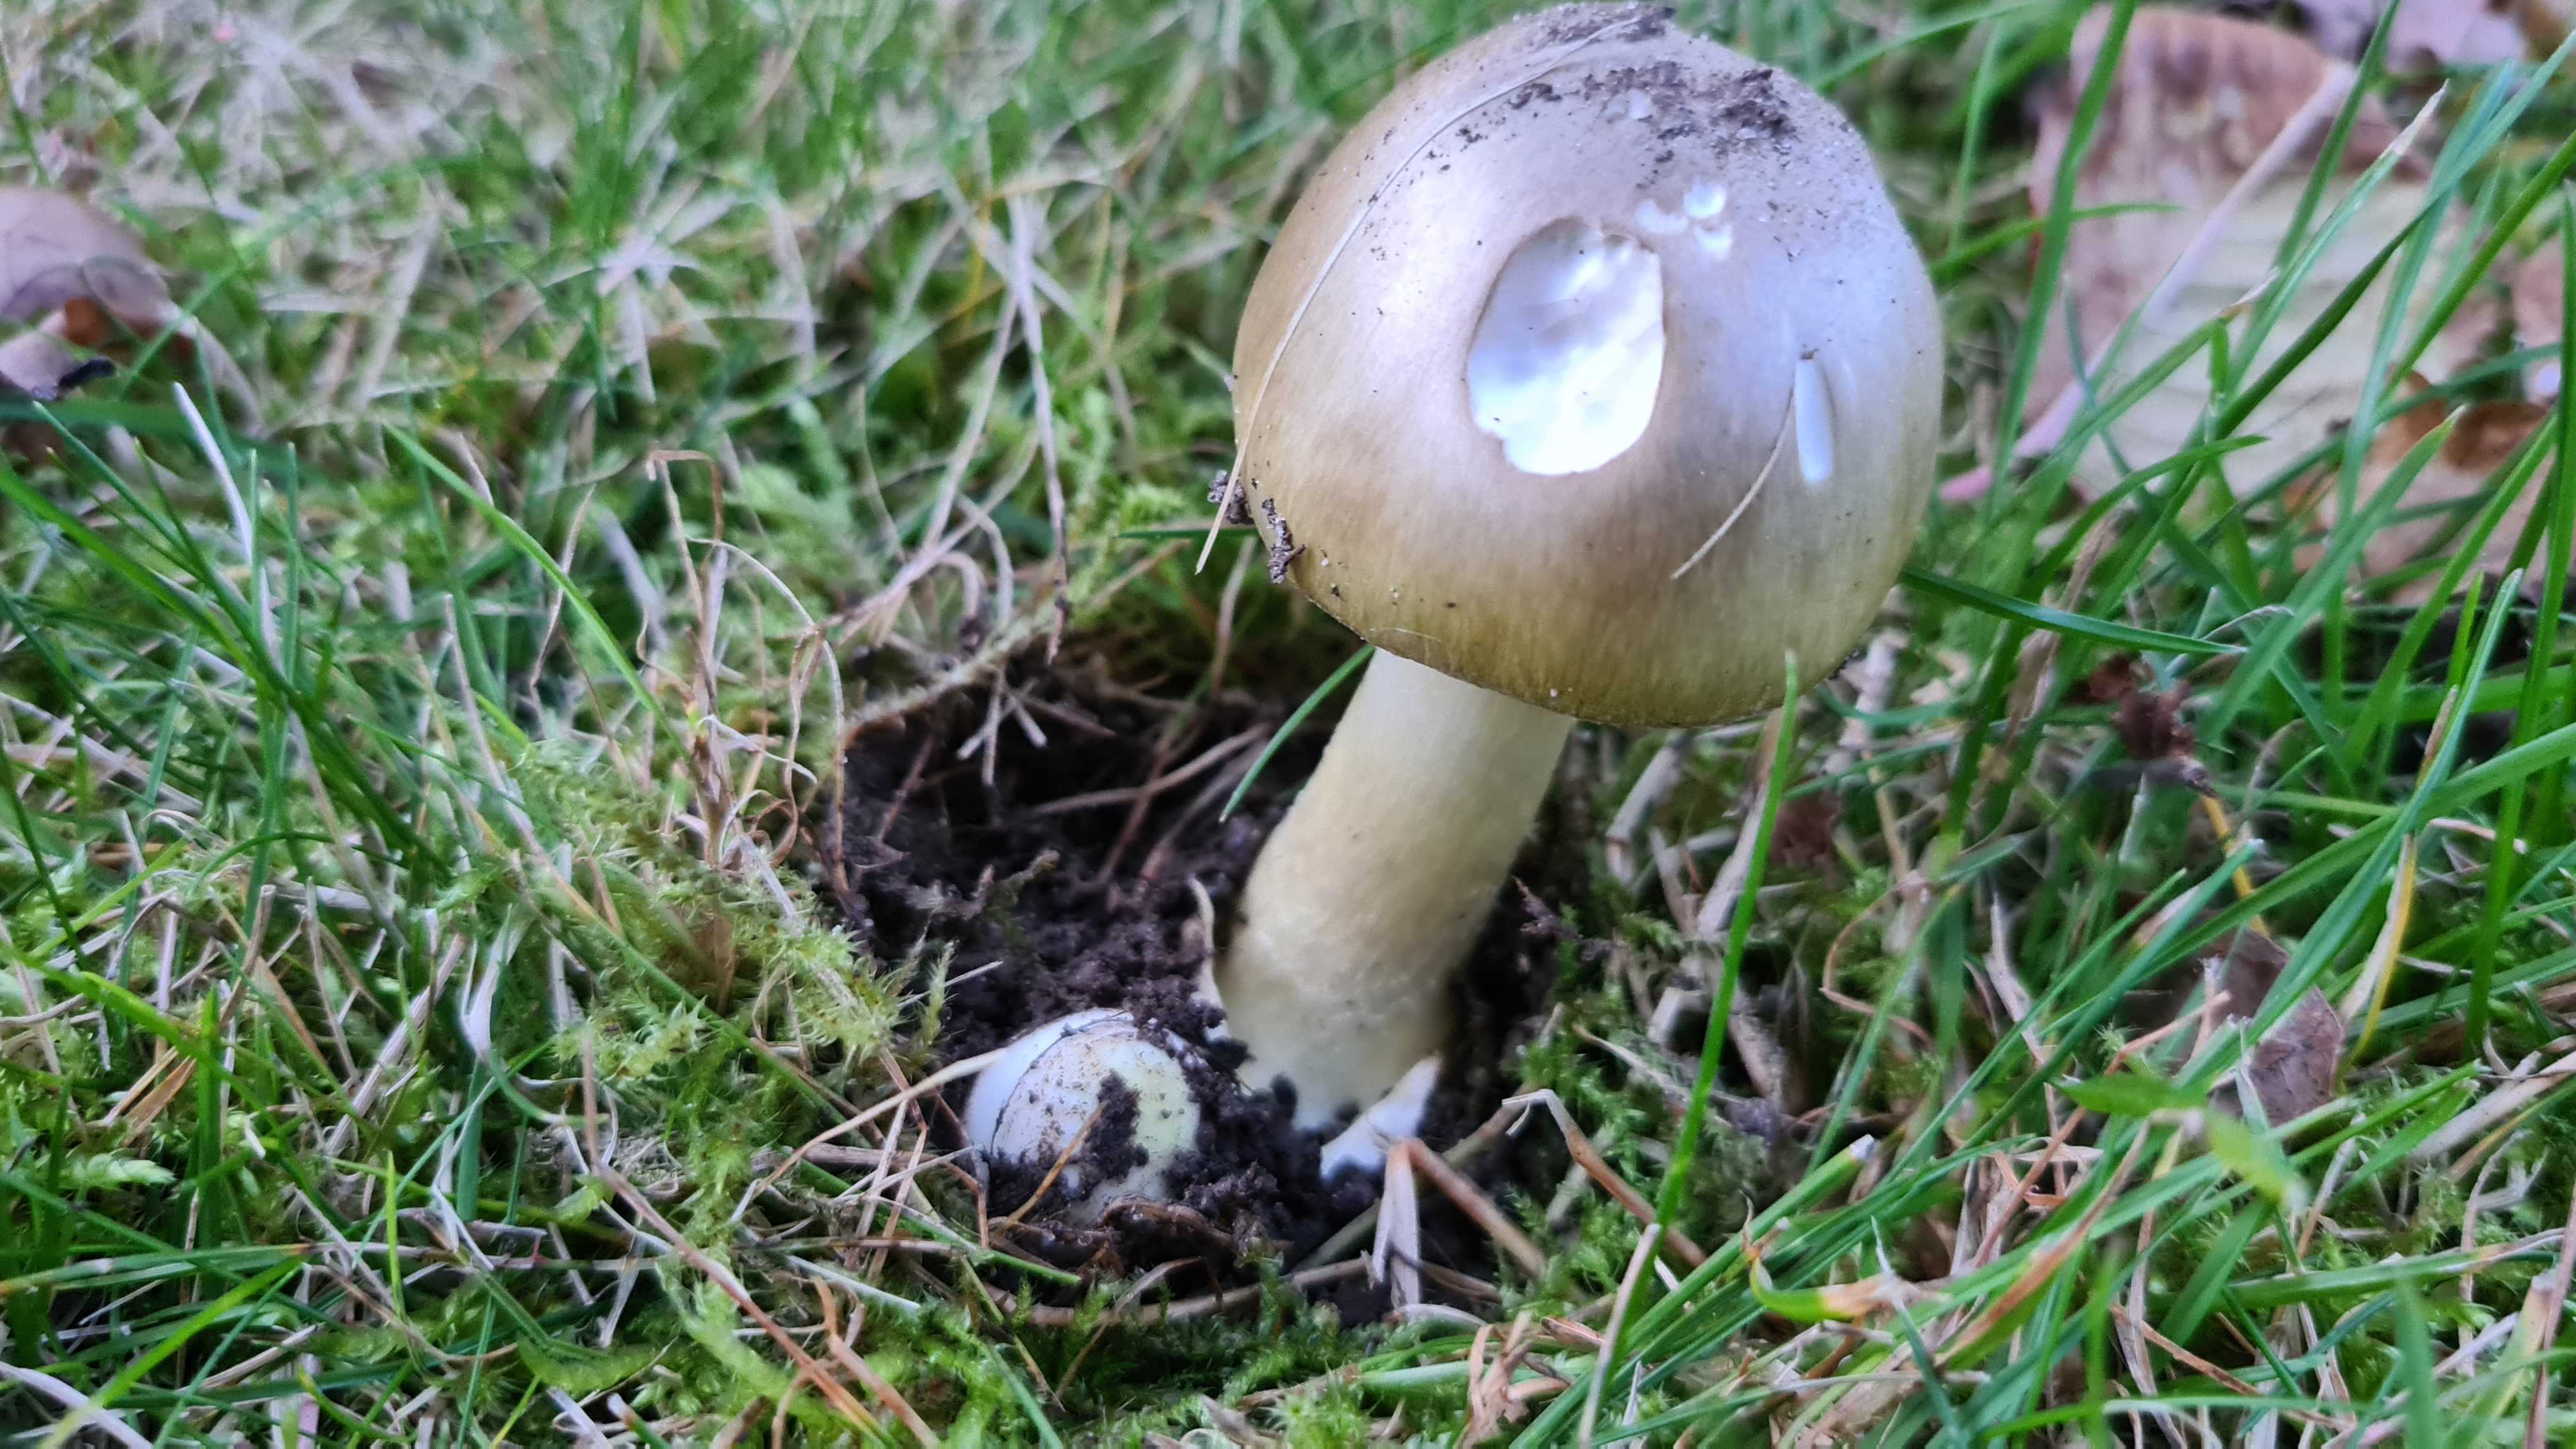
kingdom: Fungi
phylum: Basidiomycota
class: Agaricomycetes
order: Agaricales
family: Amanitaceae
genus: Amanita
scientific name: Amanita phalloides
